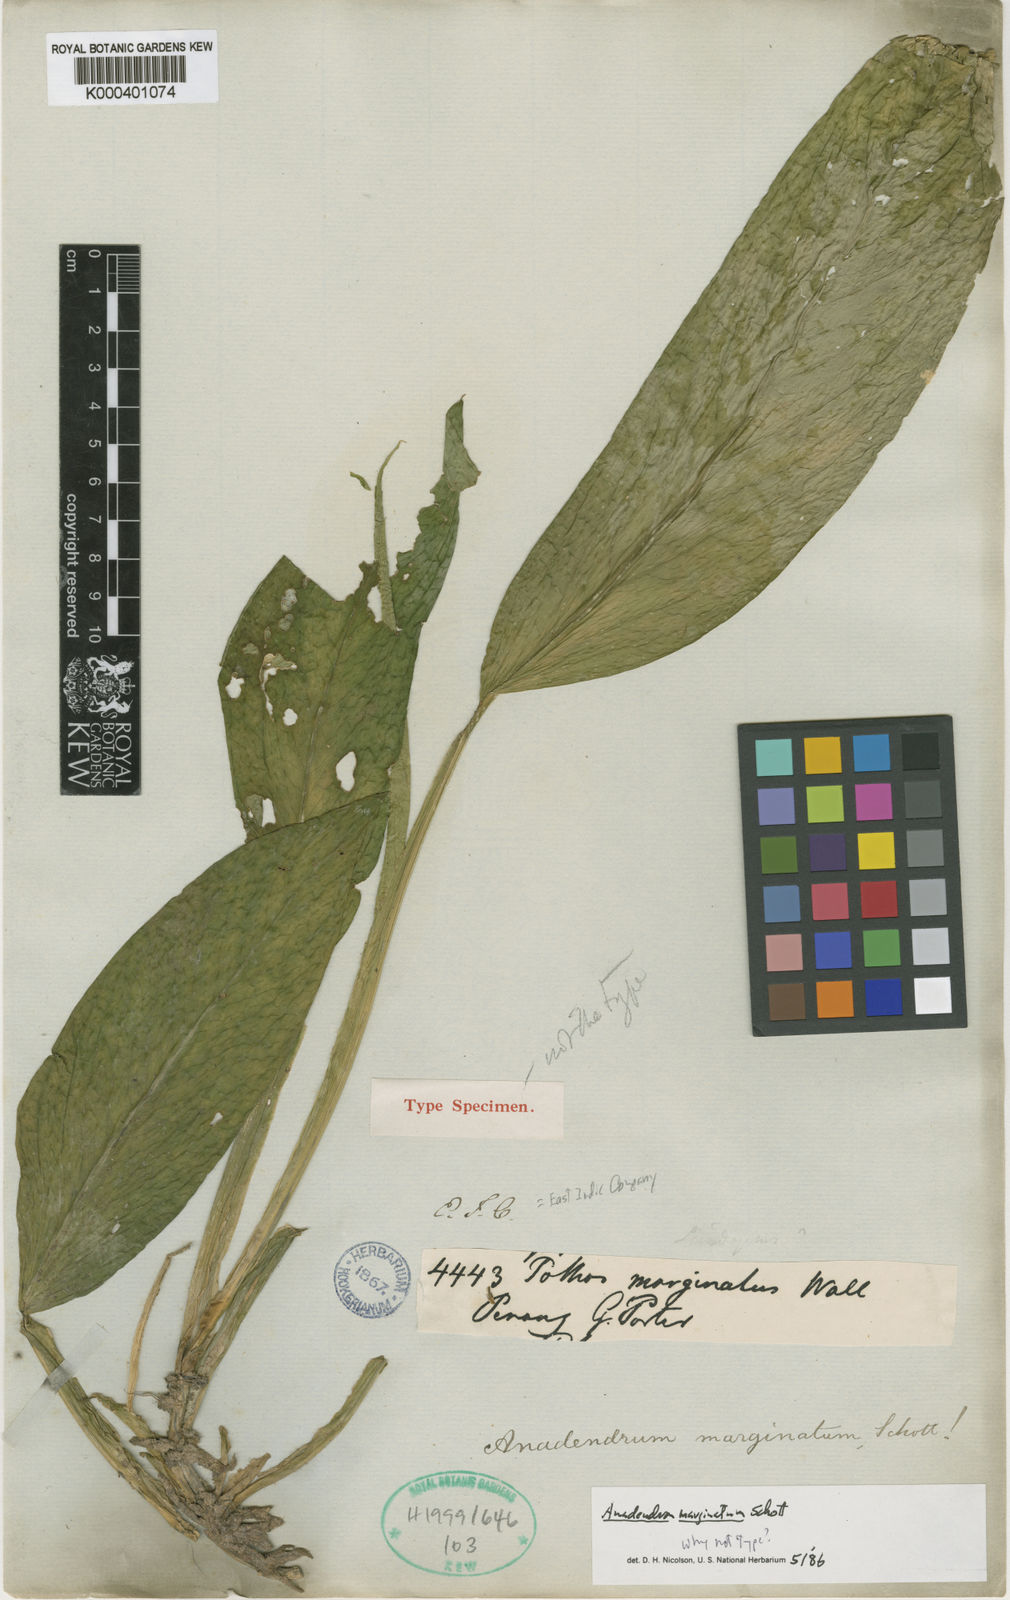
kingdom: Plantae
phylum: Tracheophyta
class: Liliopsida
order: Alismatales
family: Araceae
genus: Anadendrum
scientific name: Anadendrum marginatum
